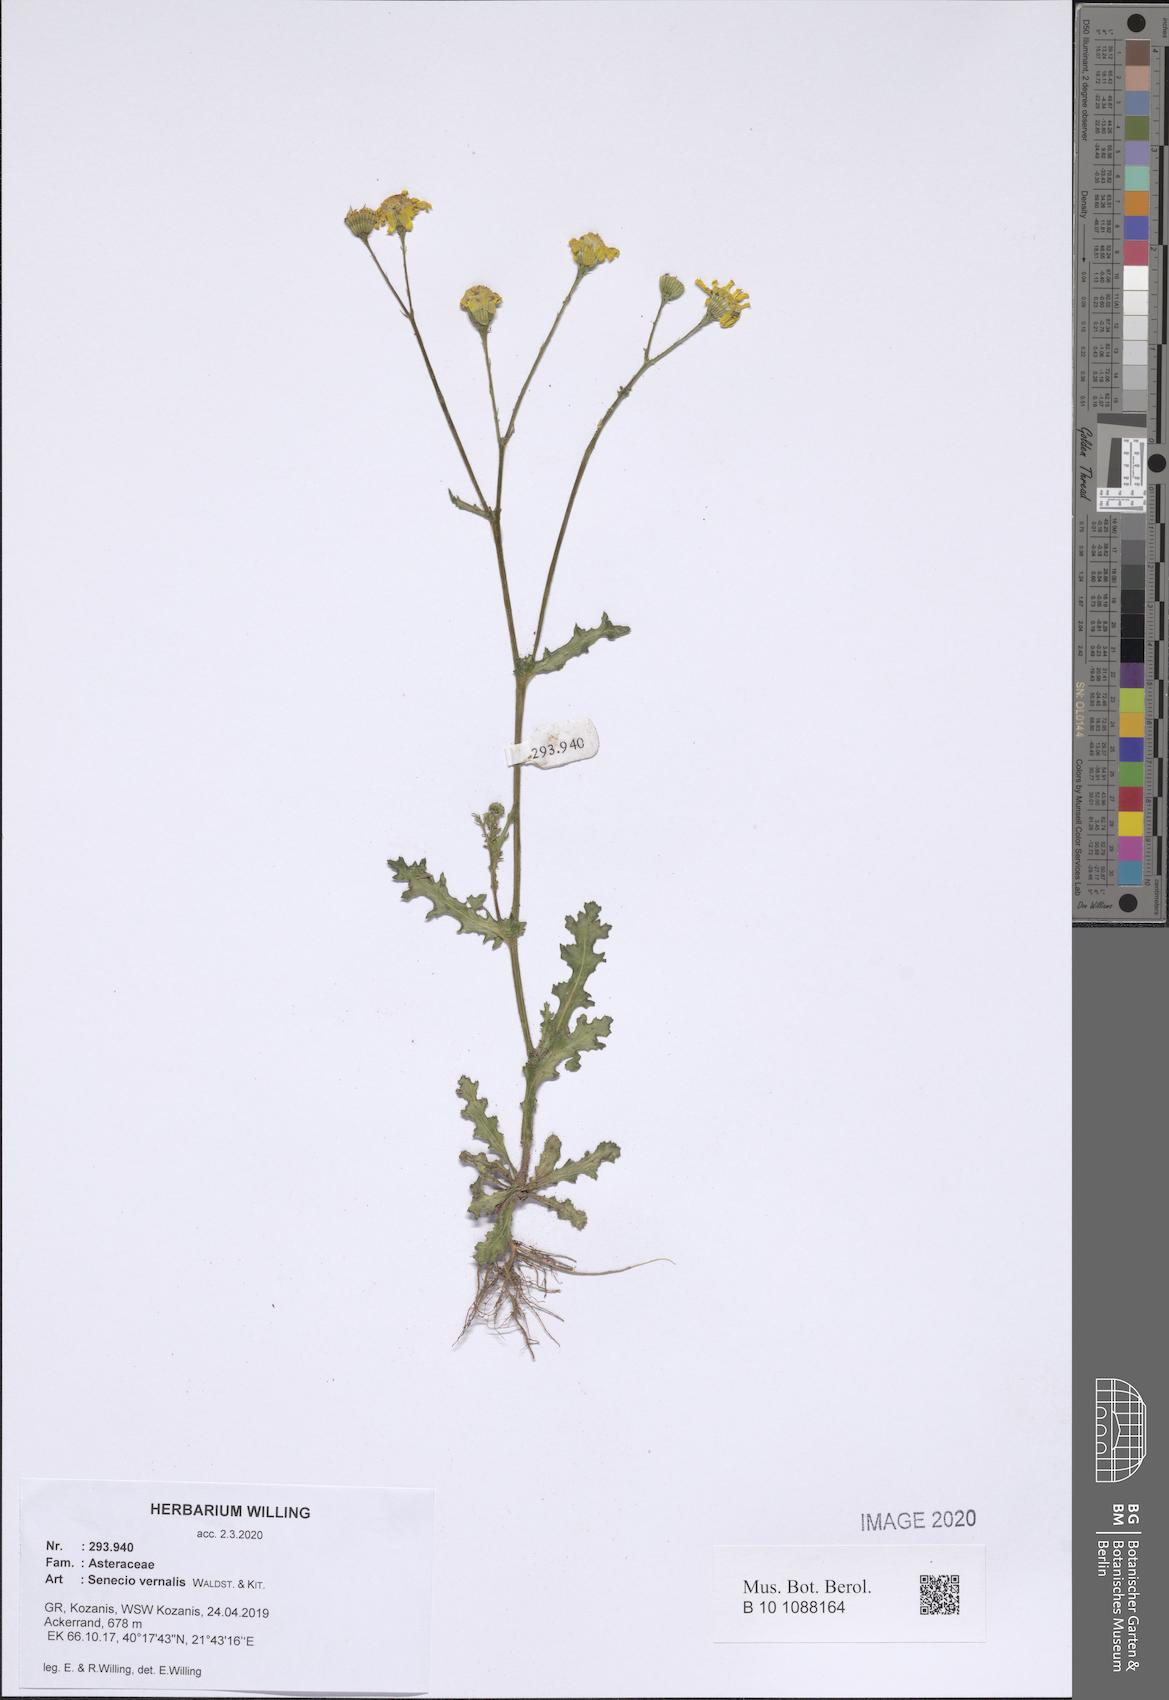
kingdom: Plantae
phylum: Tracheophyta
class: Magnoliopsida
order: Asterales
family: Asteraceae
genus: Senecio
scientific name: Senecio vernalis
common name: Eastern groundsel
